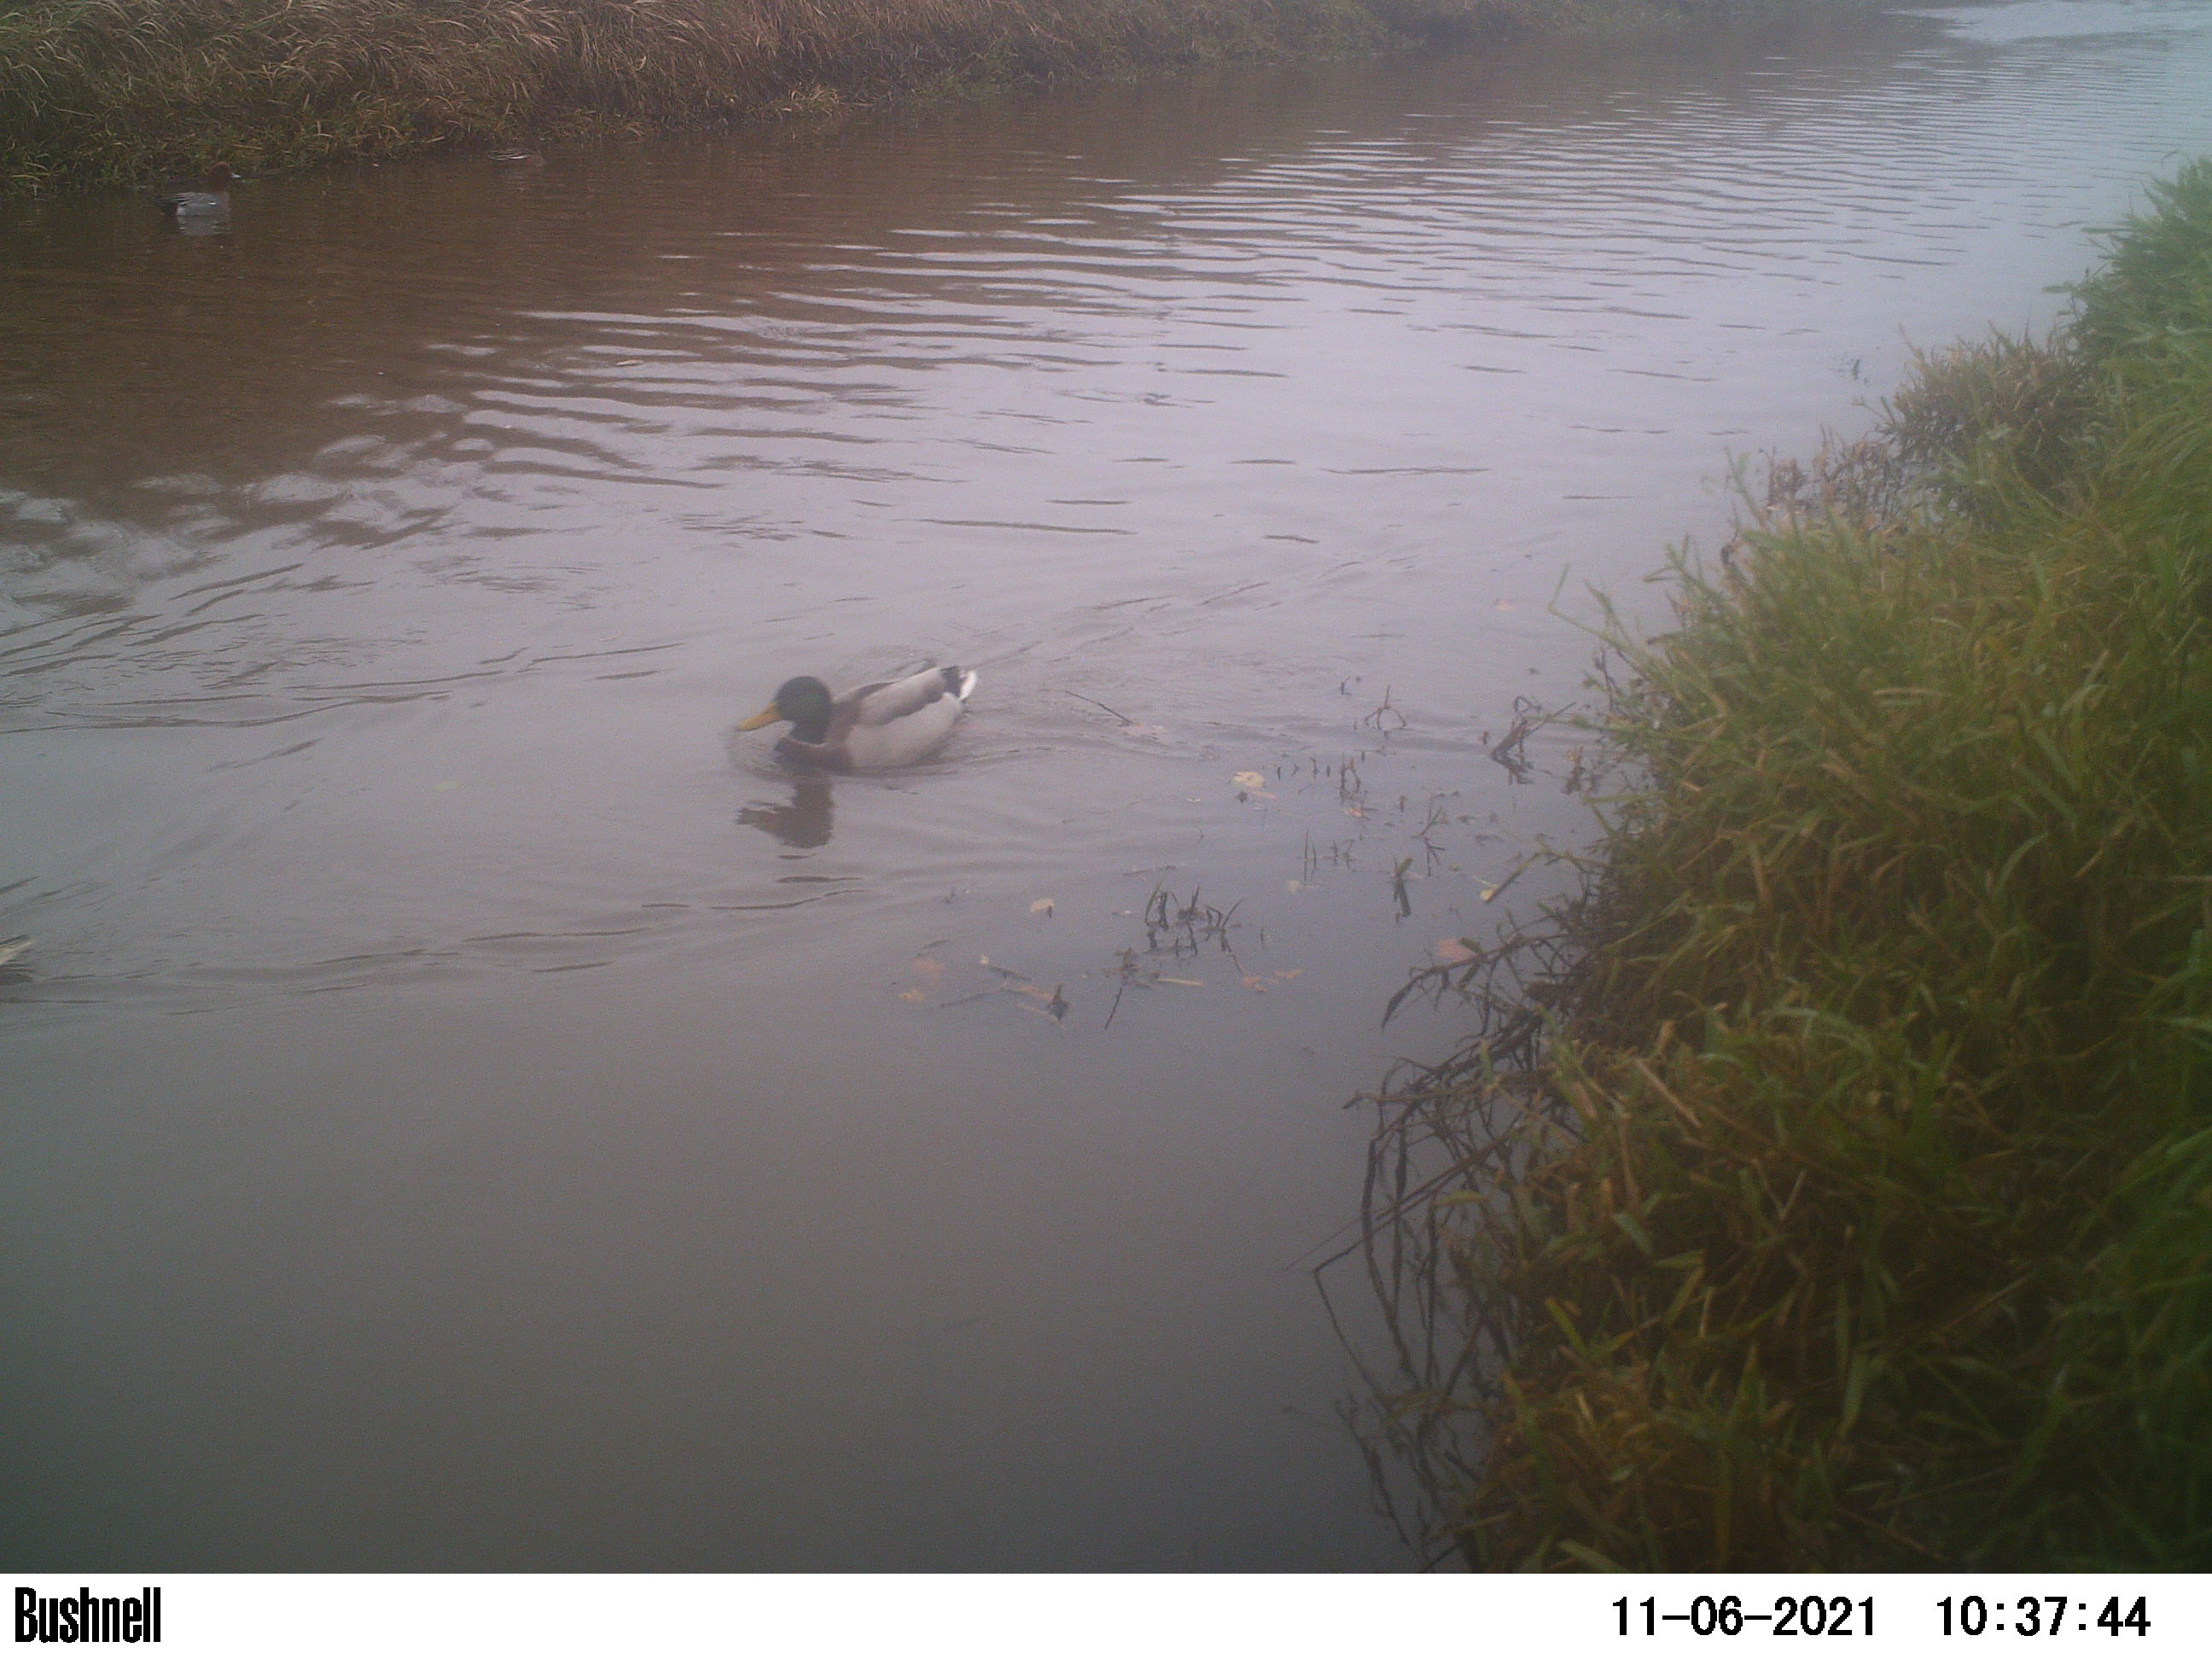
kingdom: Animalia
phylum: Chordata
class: Aves
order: Anseriformes
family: Anatidae
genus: Anas
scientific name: Anas
